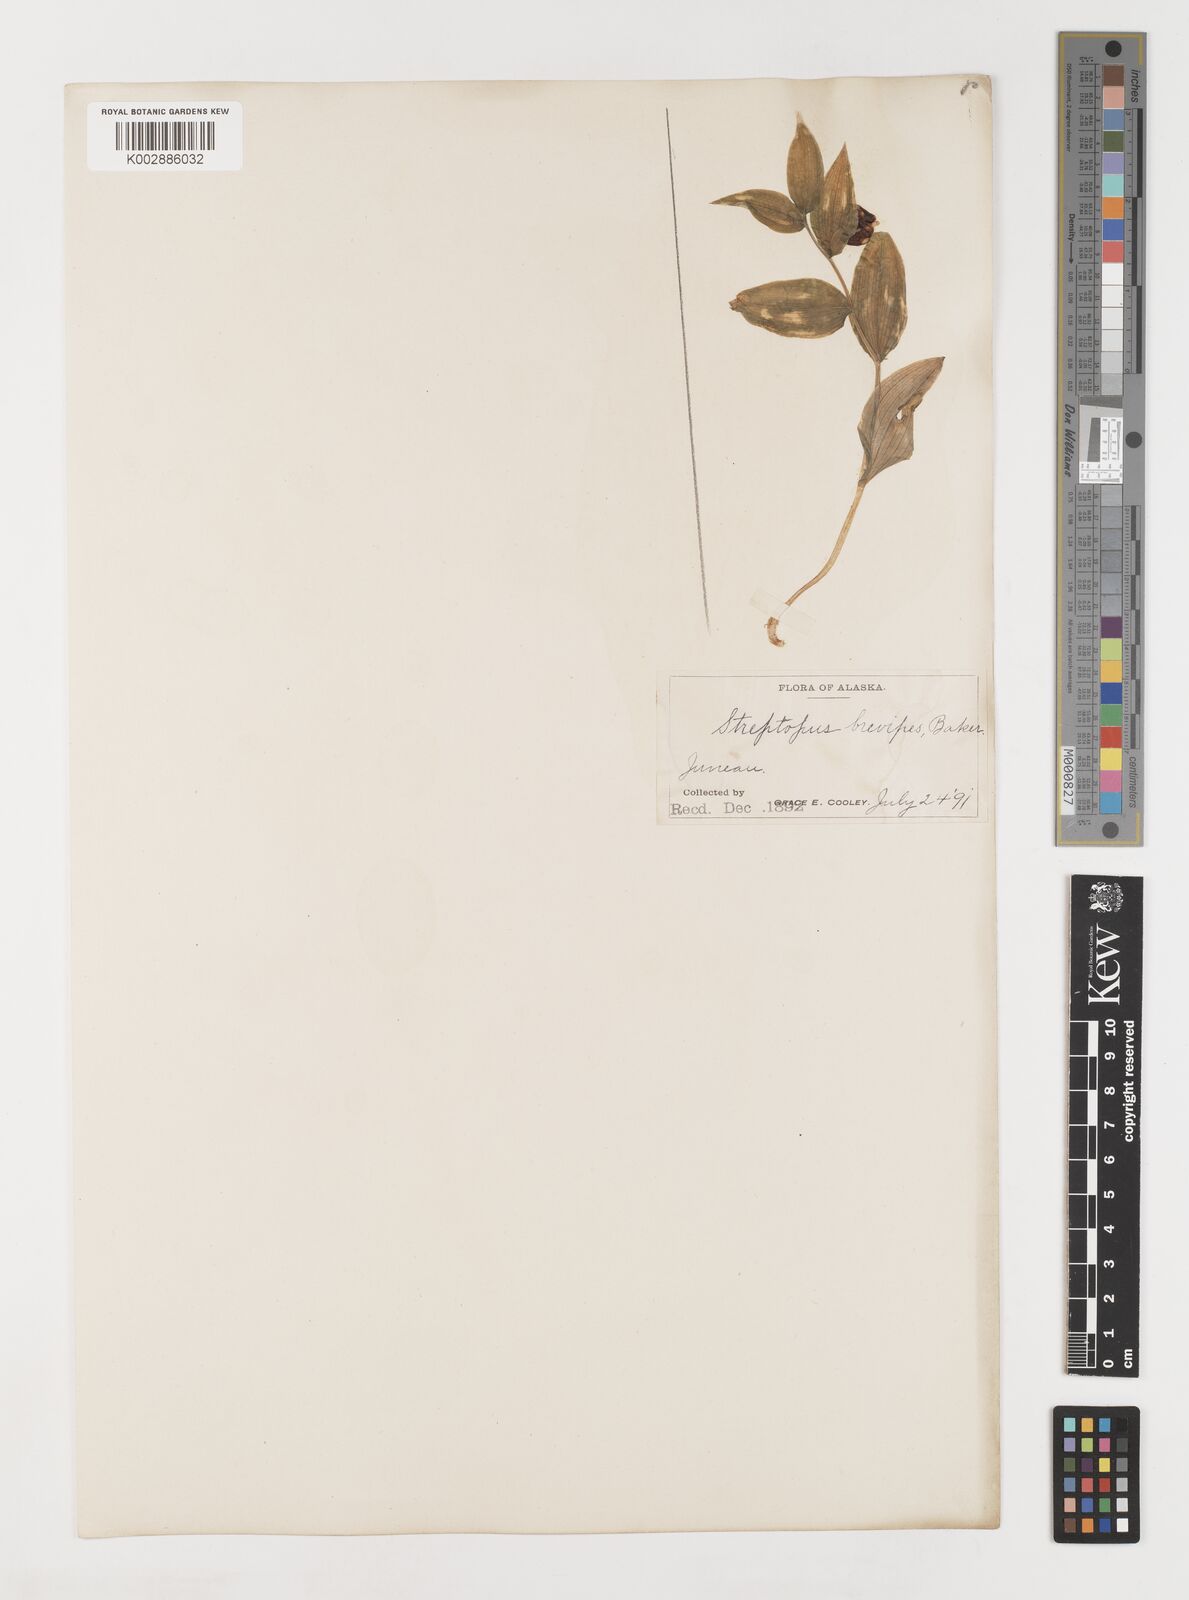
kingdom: Plantae
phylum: Tracheophyta
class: Liliopsida
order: Liliales
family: Liliaceae
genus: Streptopus
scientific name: Streptopus streptopoides
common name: Small twisted-stalk
